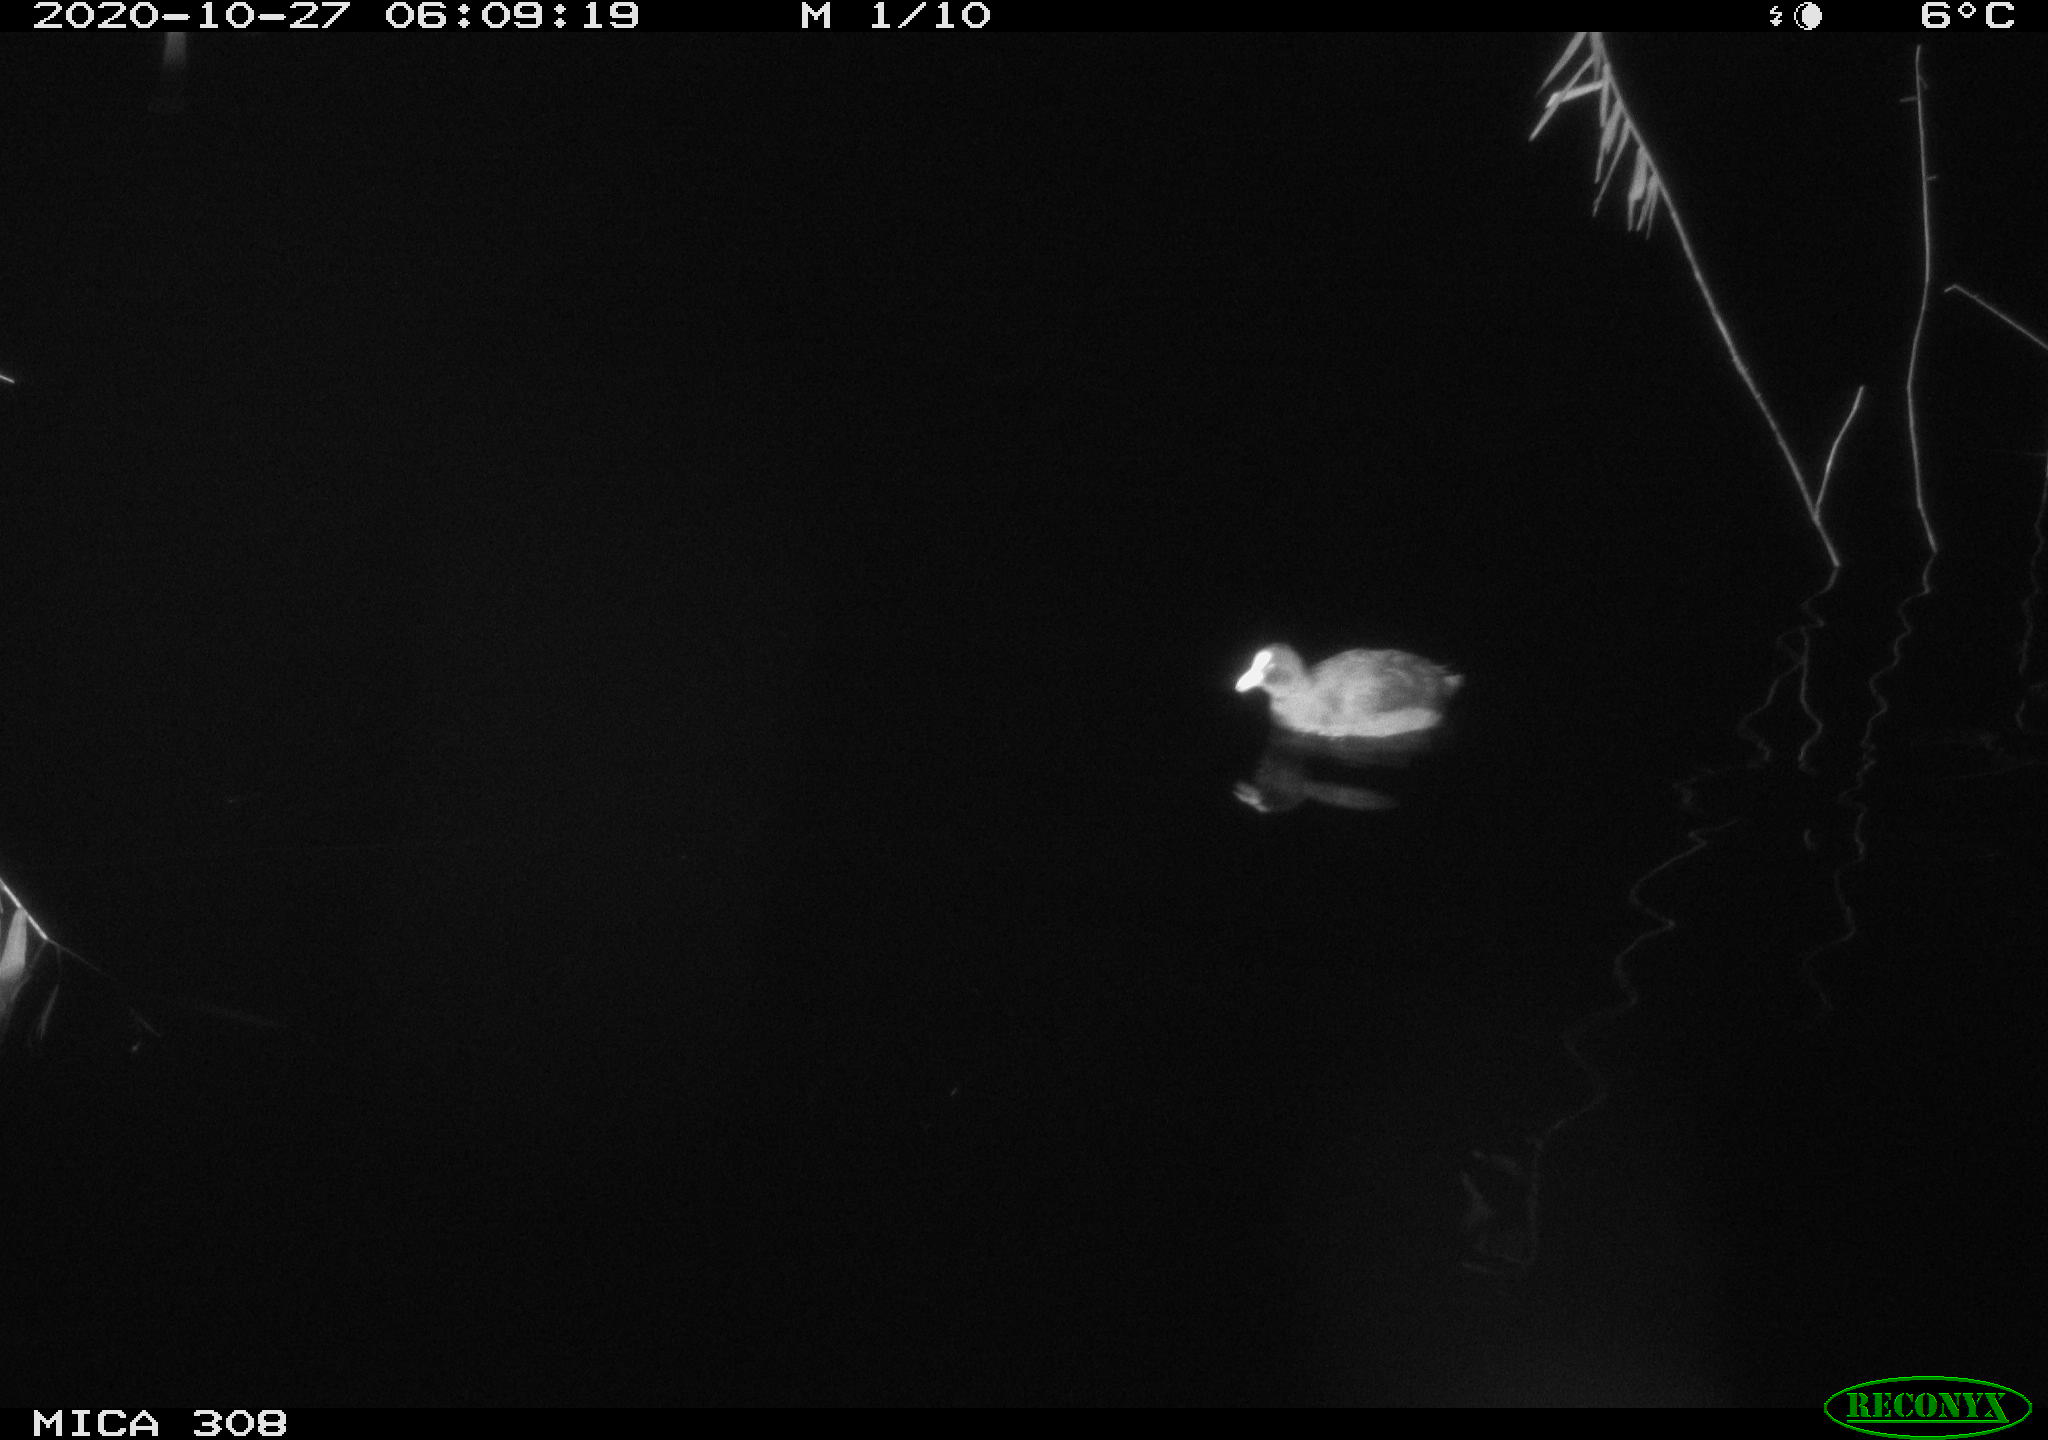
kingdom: Animalia
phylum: Chordata
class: Aves
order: Gruiformes
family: Rallidae
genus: Fulica
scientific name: Fulica atra
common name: Eurasian coot
